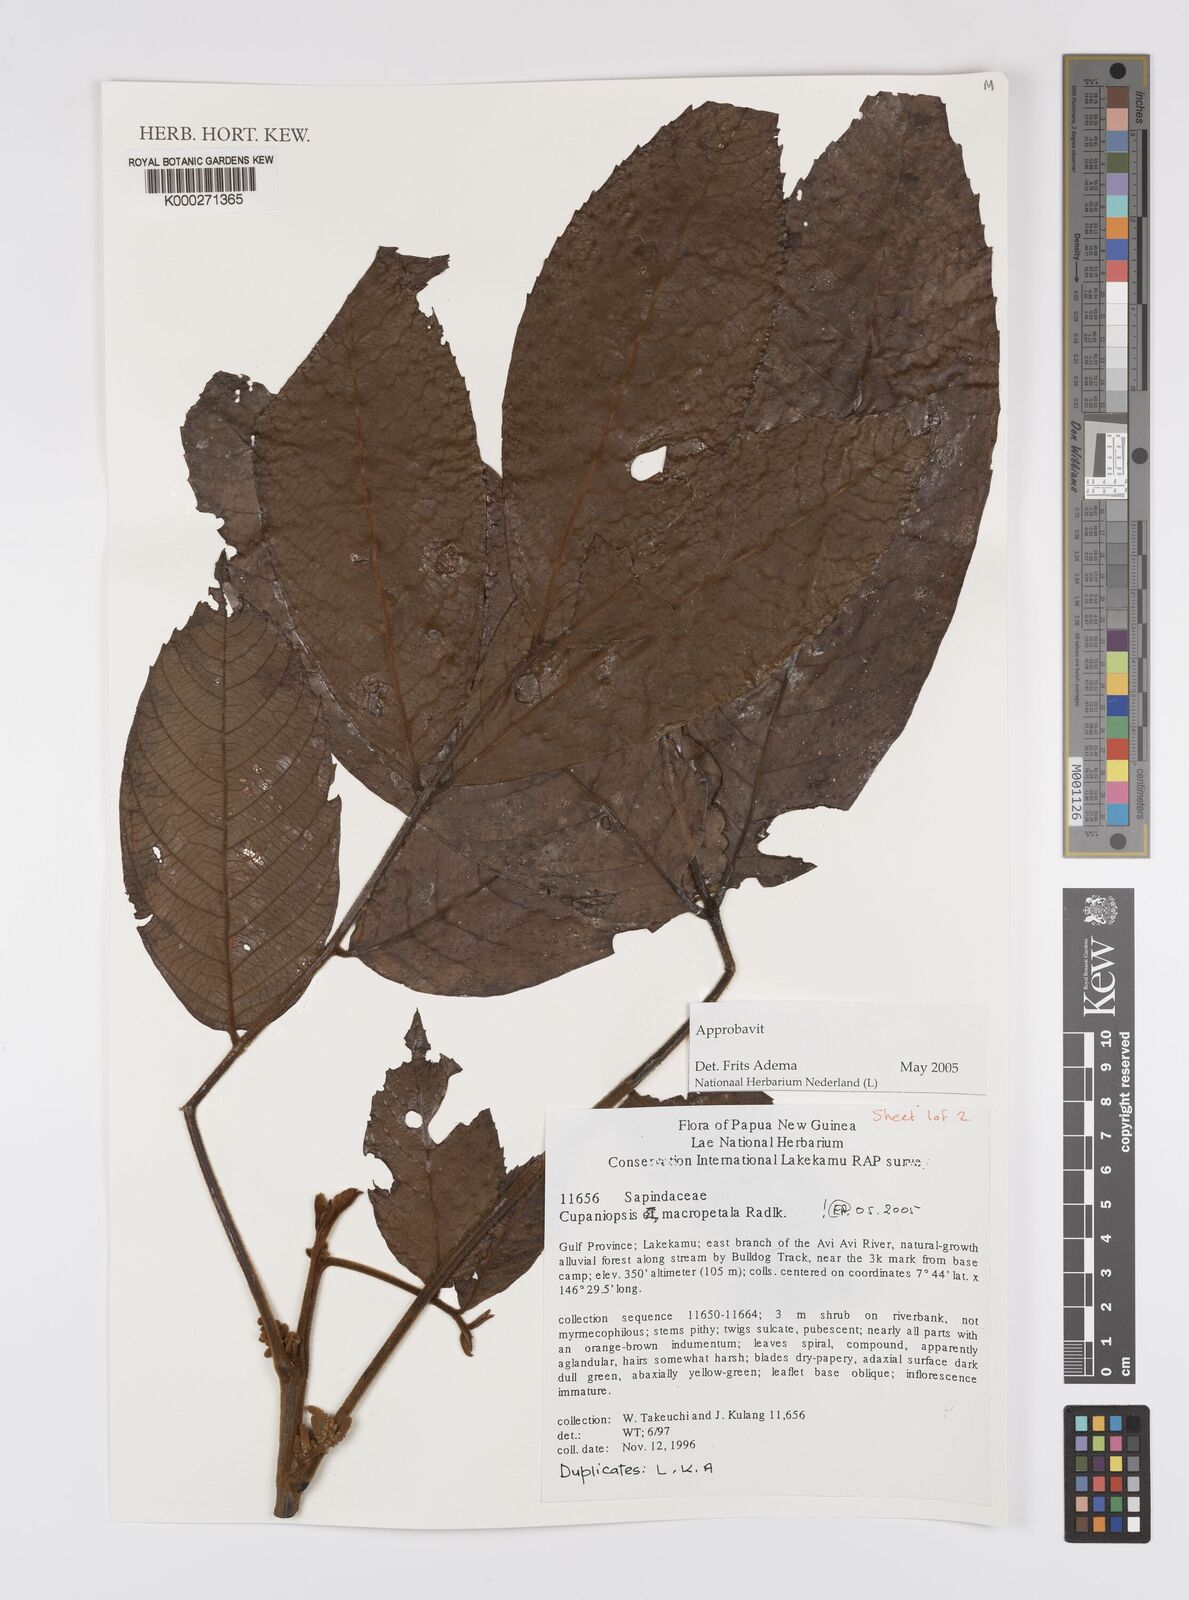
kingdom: Plantae
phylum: Tracheophyta
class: Magnoliopsida
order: Sapindales
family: Sapindaceae
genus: Cupaniopsis
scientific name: Cupaniopsis macropetala
